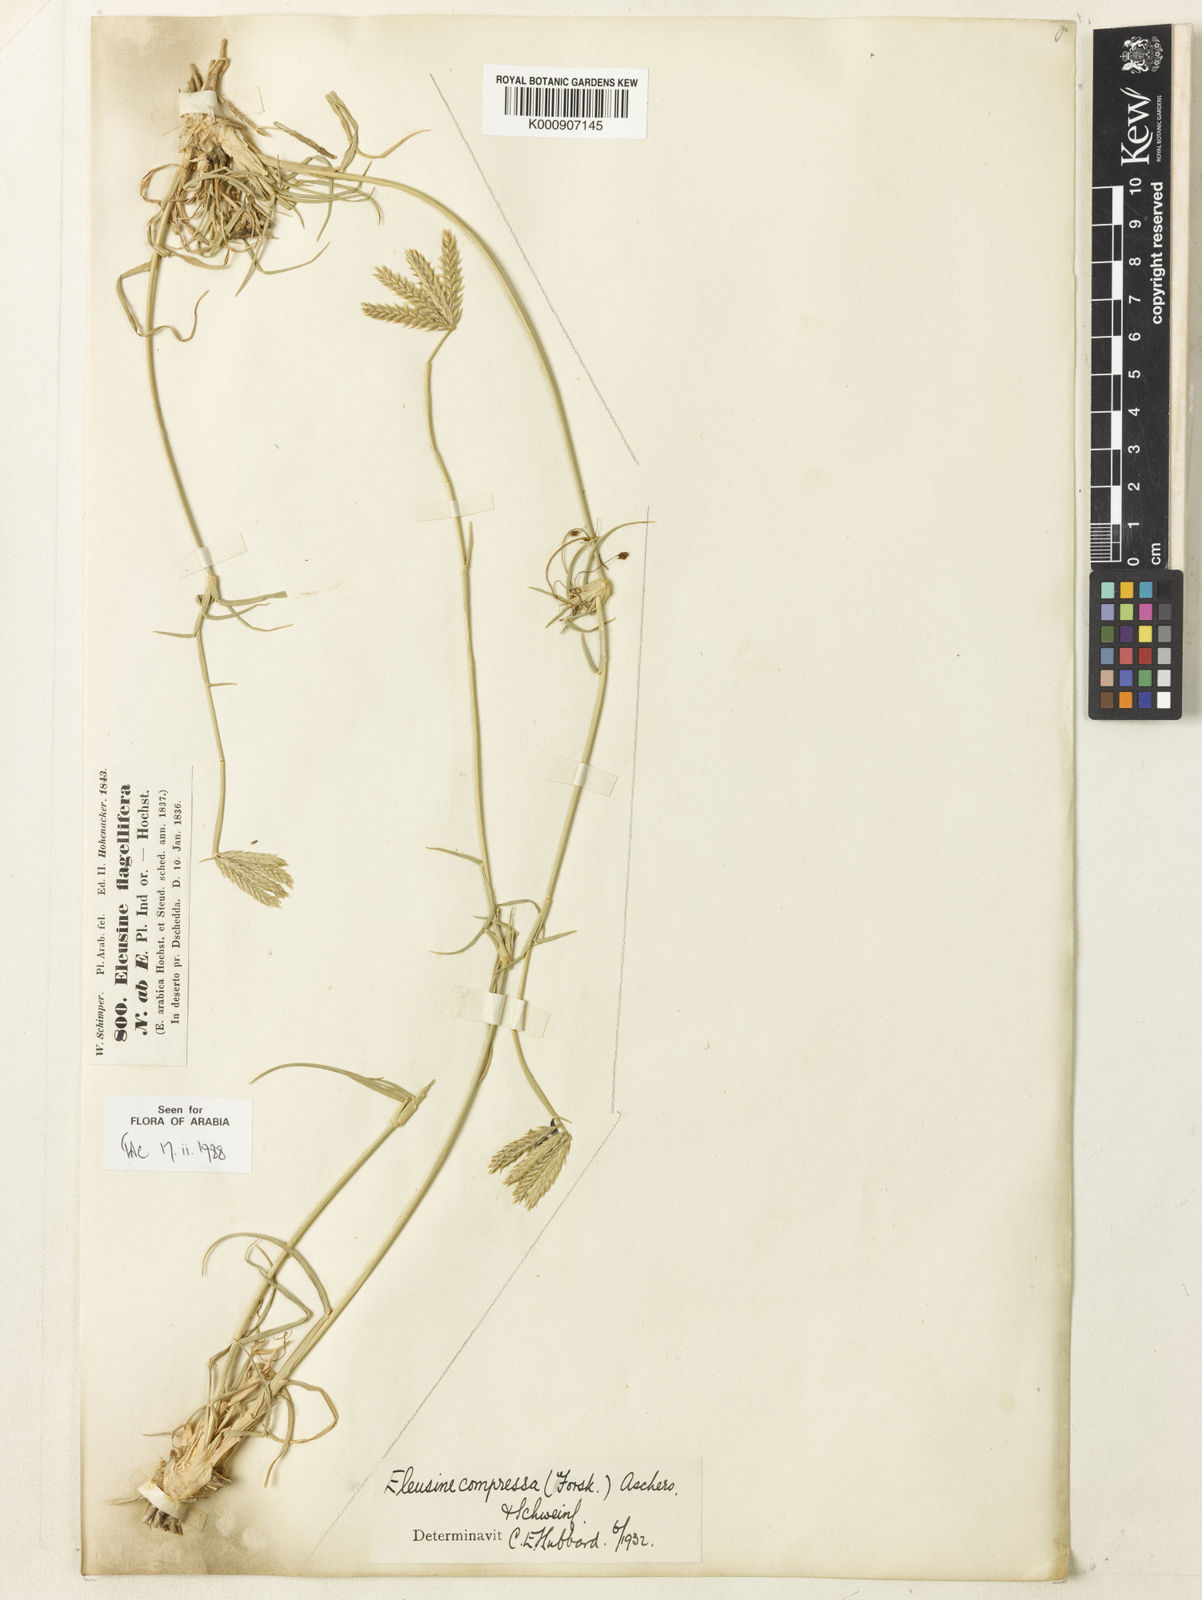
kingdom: Plantae
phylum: Tracheophyta
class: Liliopsida
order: Poales
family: Poaceae
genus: Chloris
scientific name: Chloris flagellifera
